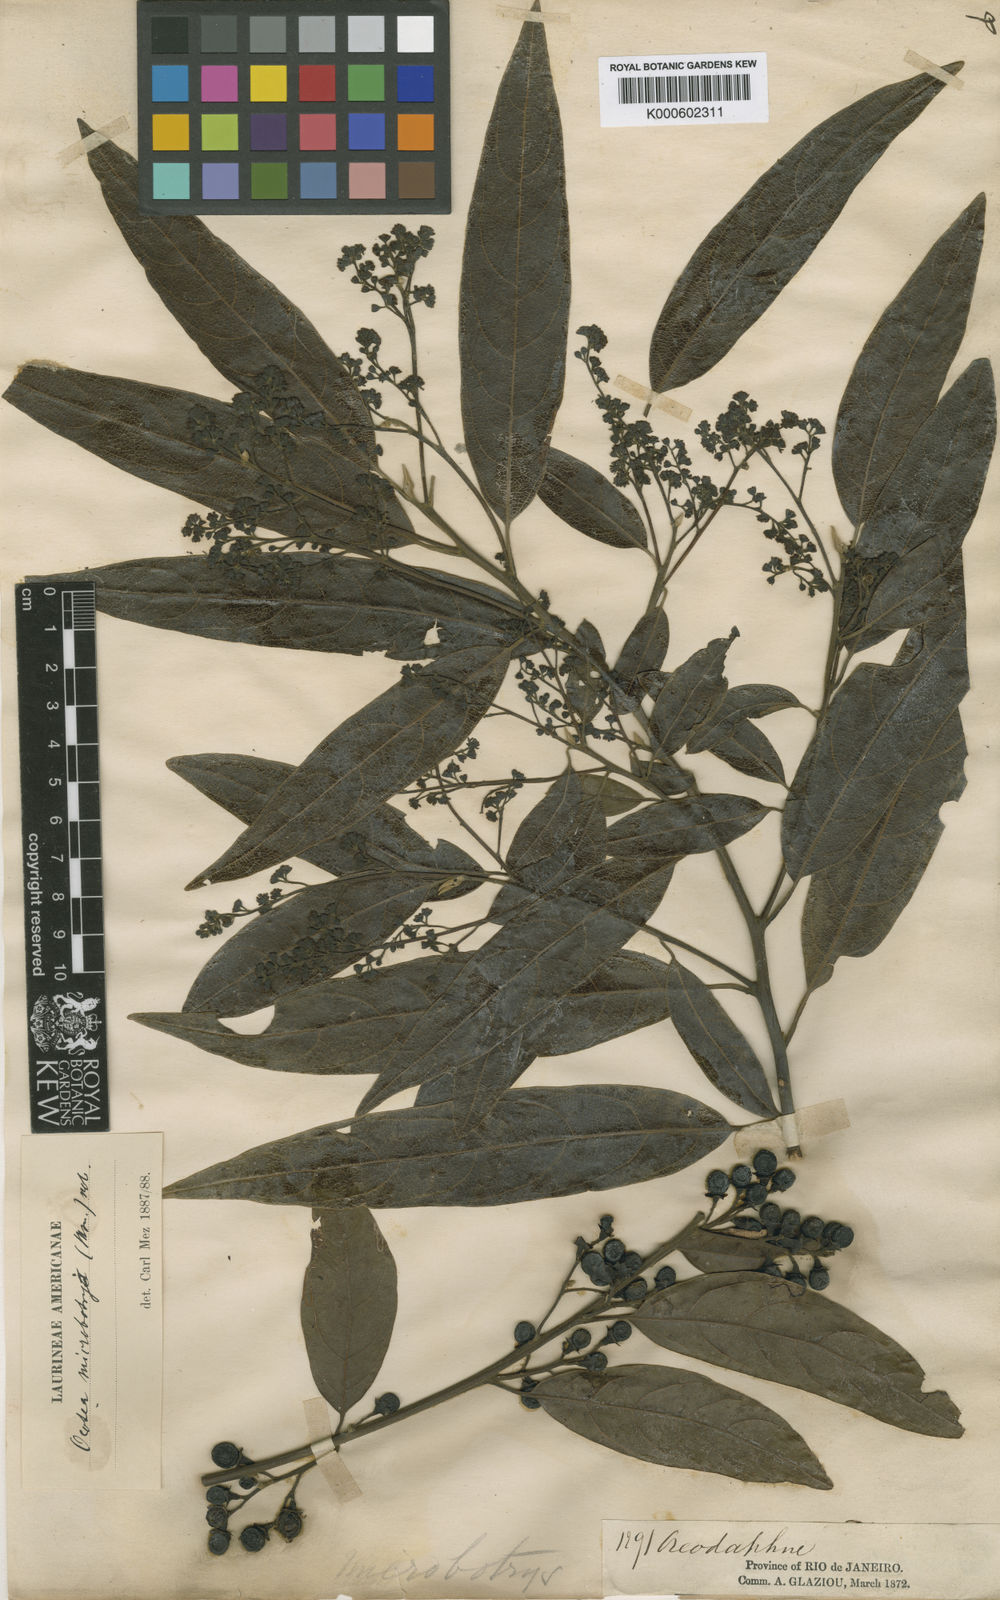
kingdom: Plantae
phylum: Tracheophyta
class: Magnoliopsida
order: Laurales
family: Lauraceae
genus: Ocotea
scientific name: Ocotea microbotrys
